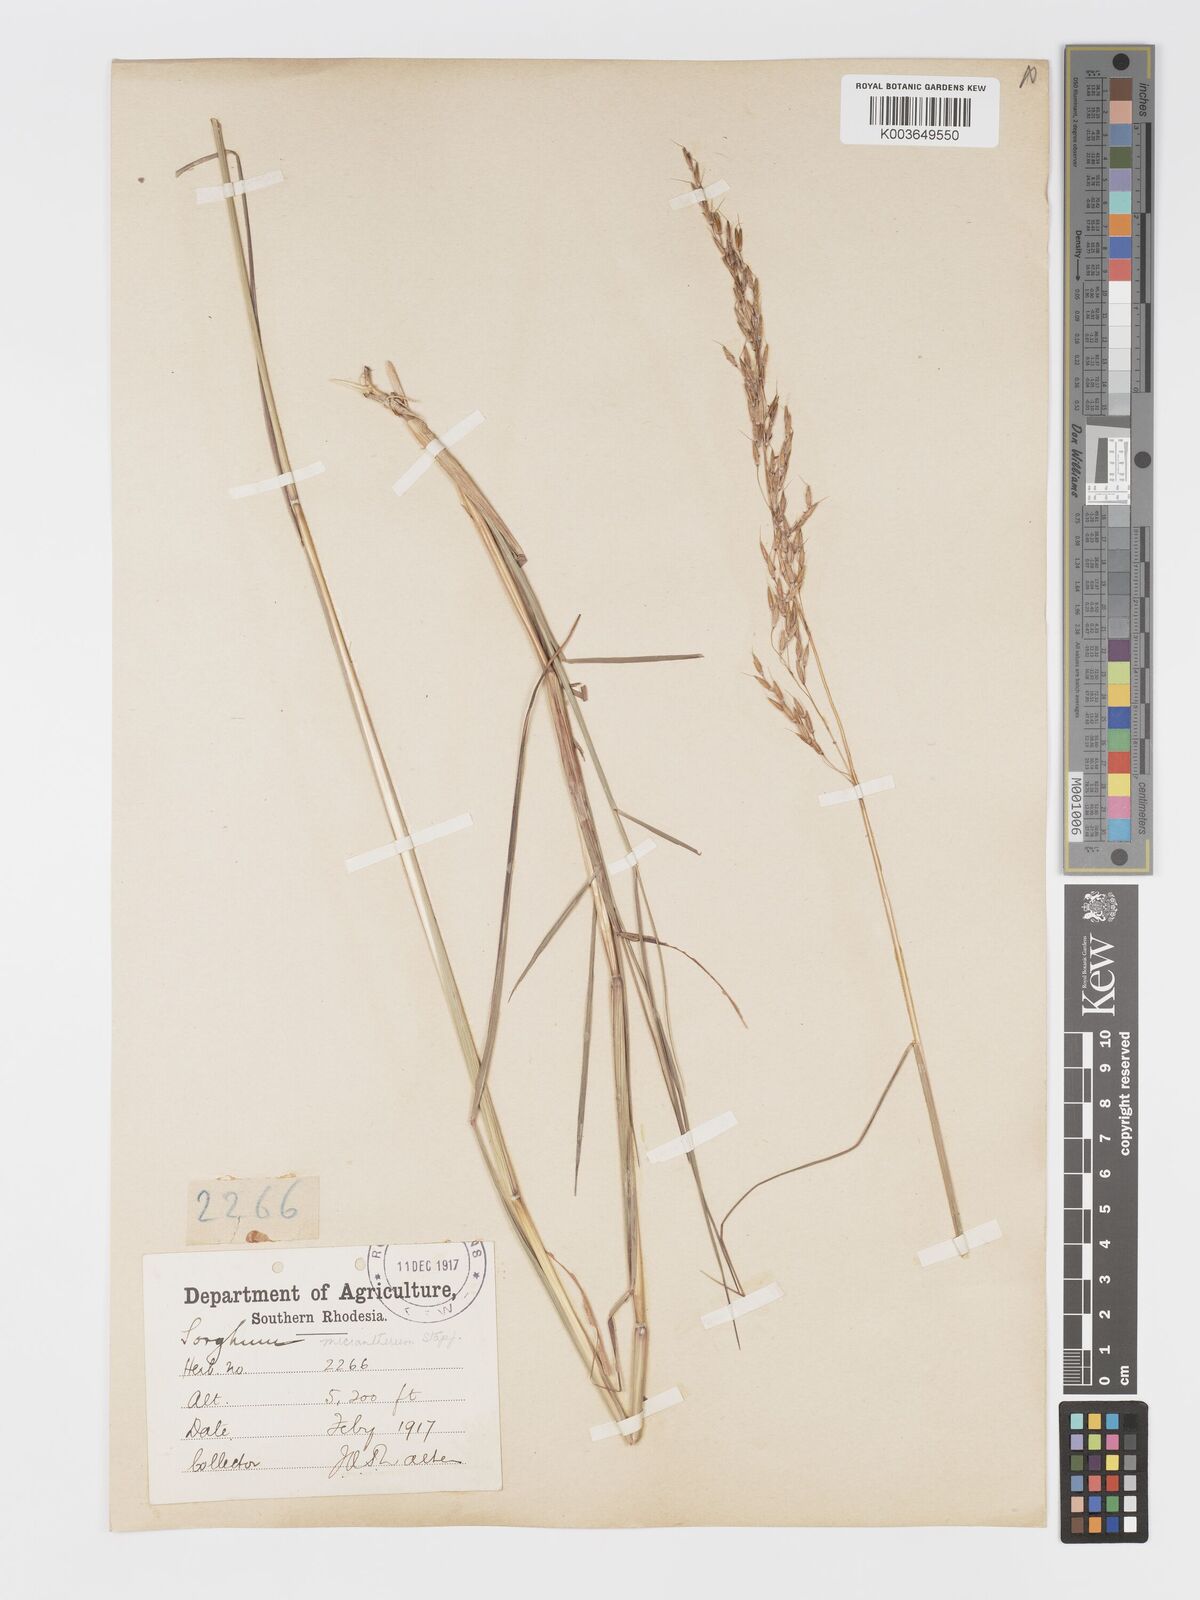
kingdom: Plantae
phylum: Tracheophyta
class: Liliopsida
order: Poales
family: Poaceae
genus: Sorghastrum
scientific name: Sorghastrum nudipes
